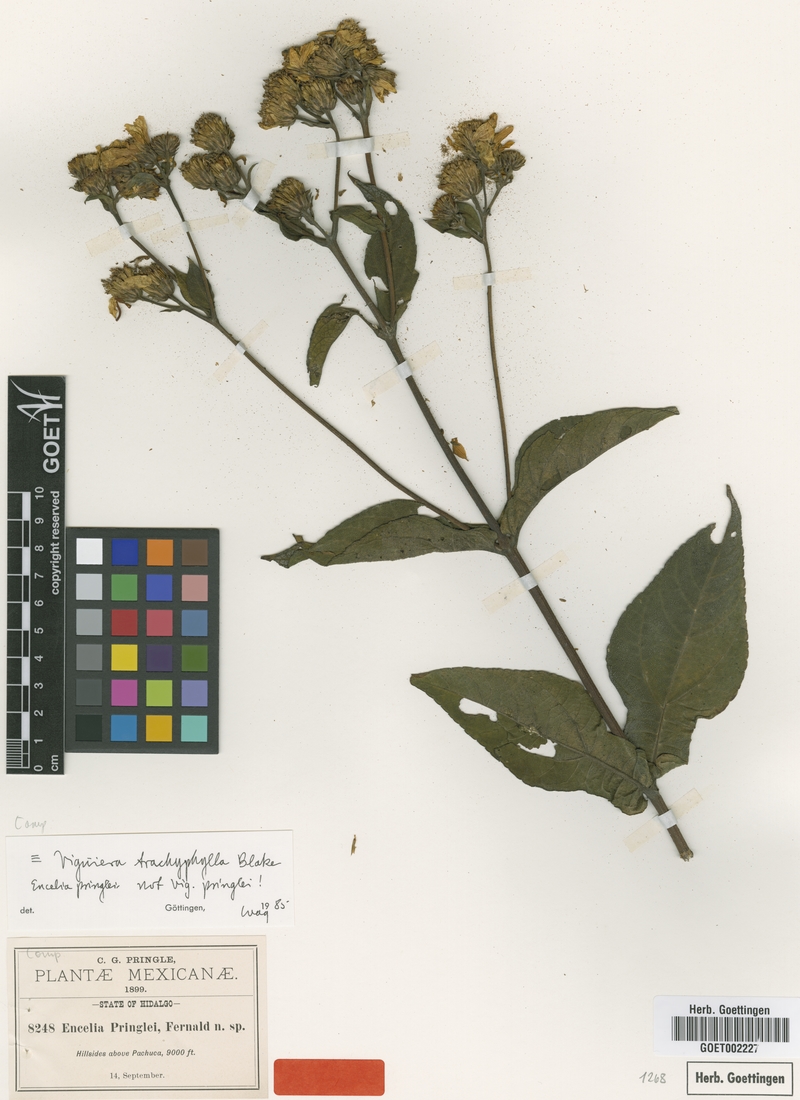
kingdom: Plantae
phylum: Tracheophyta
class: Magnoliopsida
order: Asterales
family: Asteraceae
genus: Dendroviguiera
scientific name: Dendroviguiera pringlei
